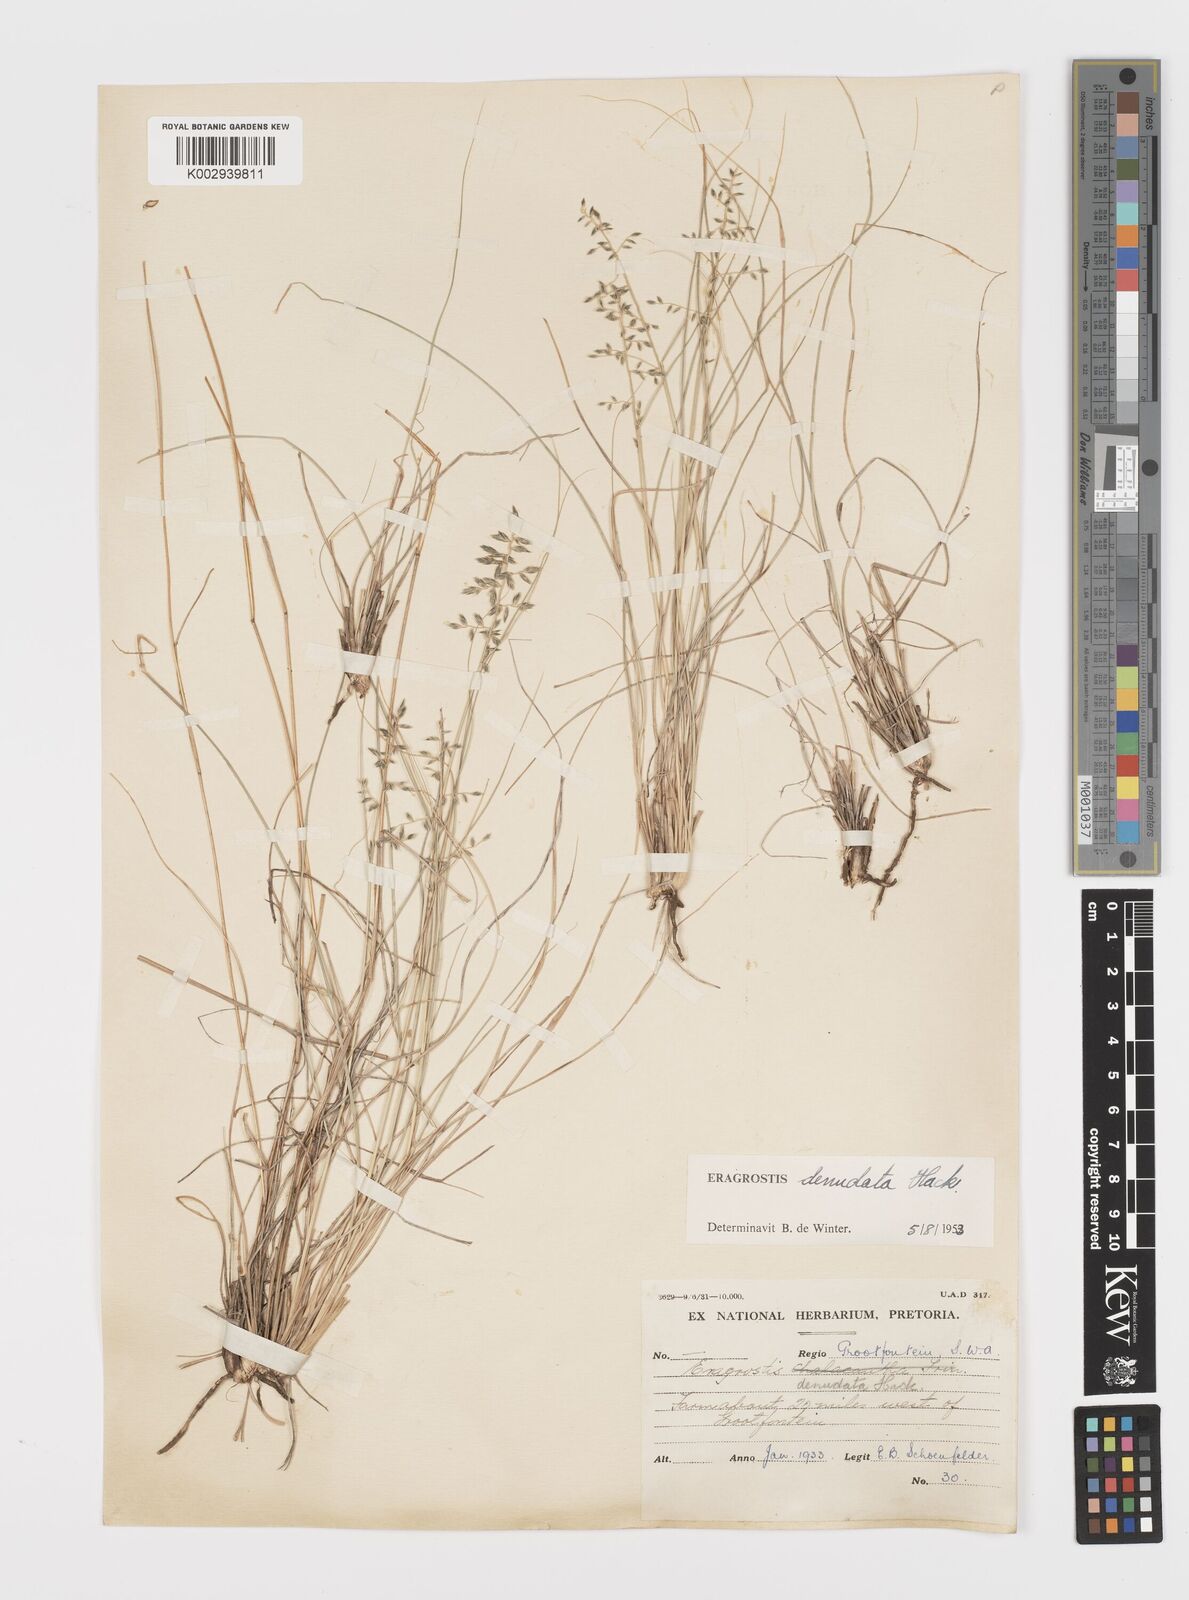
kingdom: Plantae
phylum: Tracheophyta
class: Liliopsida
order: Poales
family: Poaceae
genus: Eragrostis
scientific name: Eragrostis nindensis
